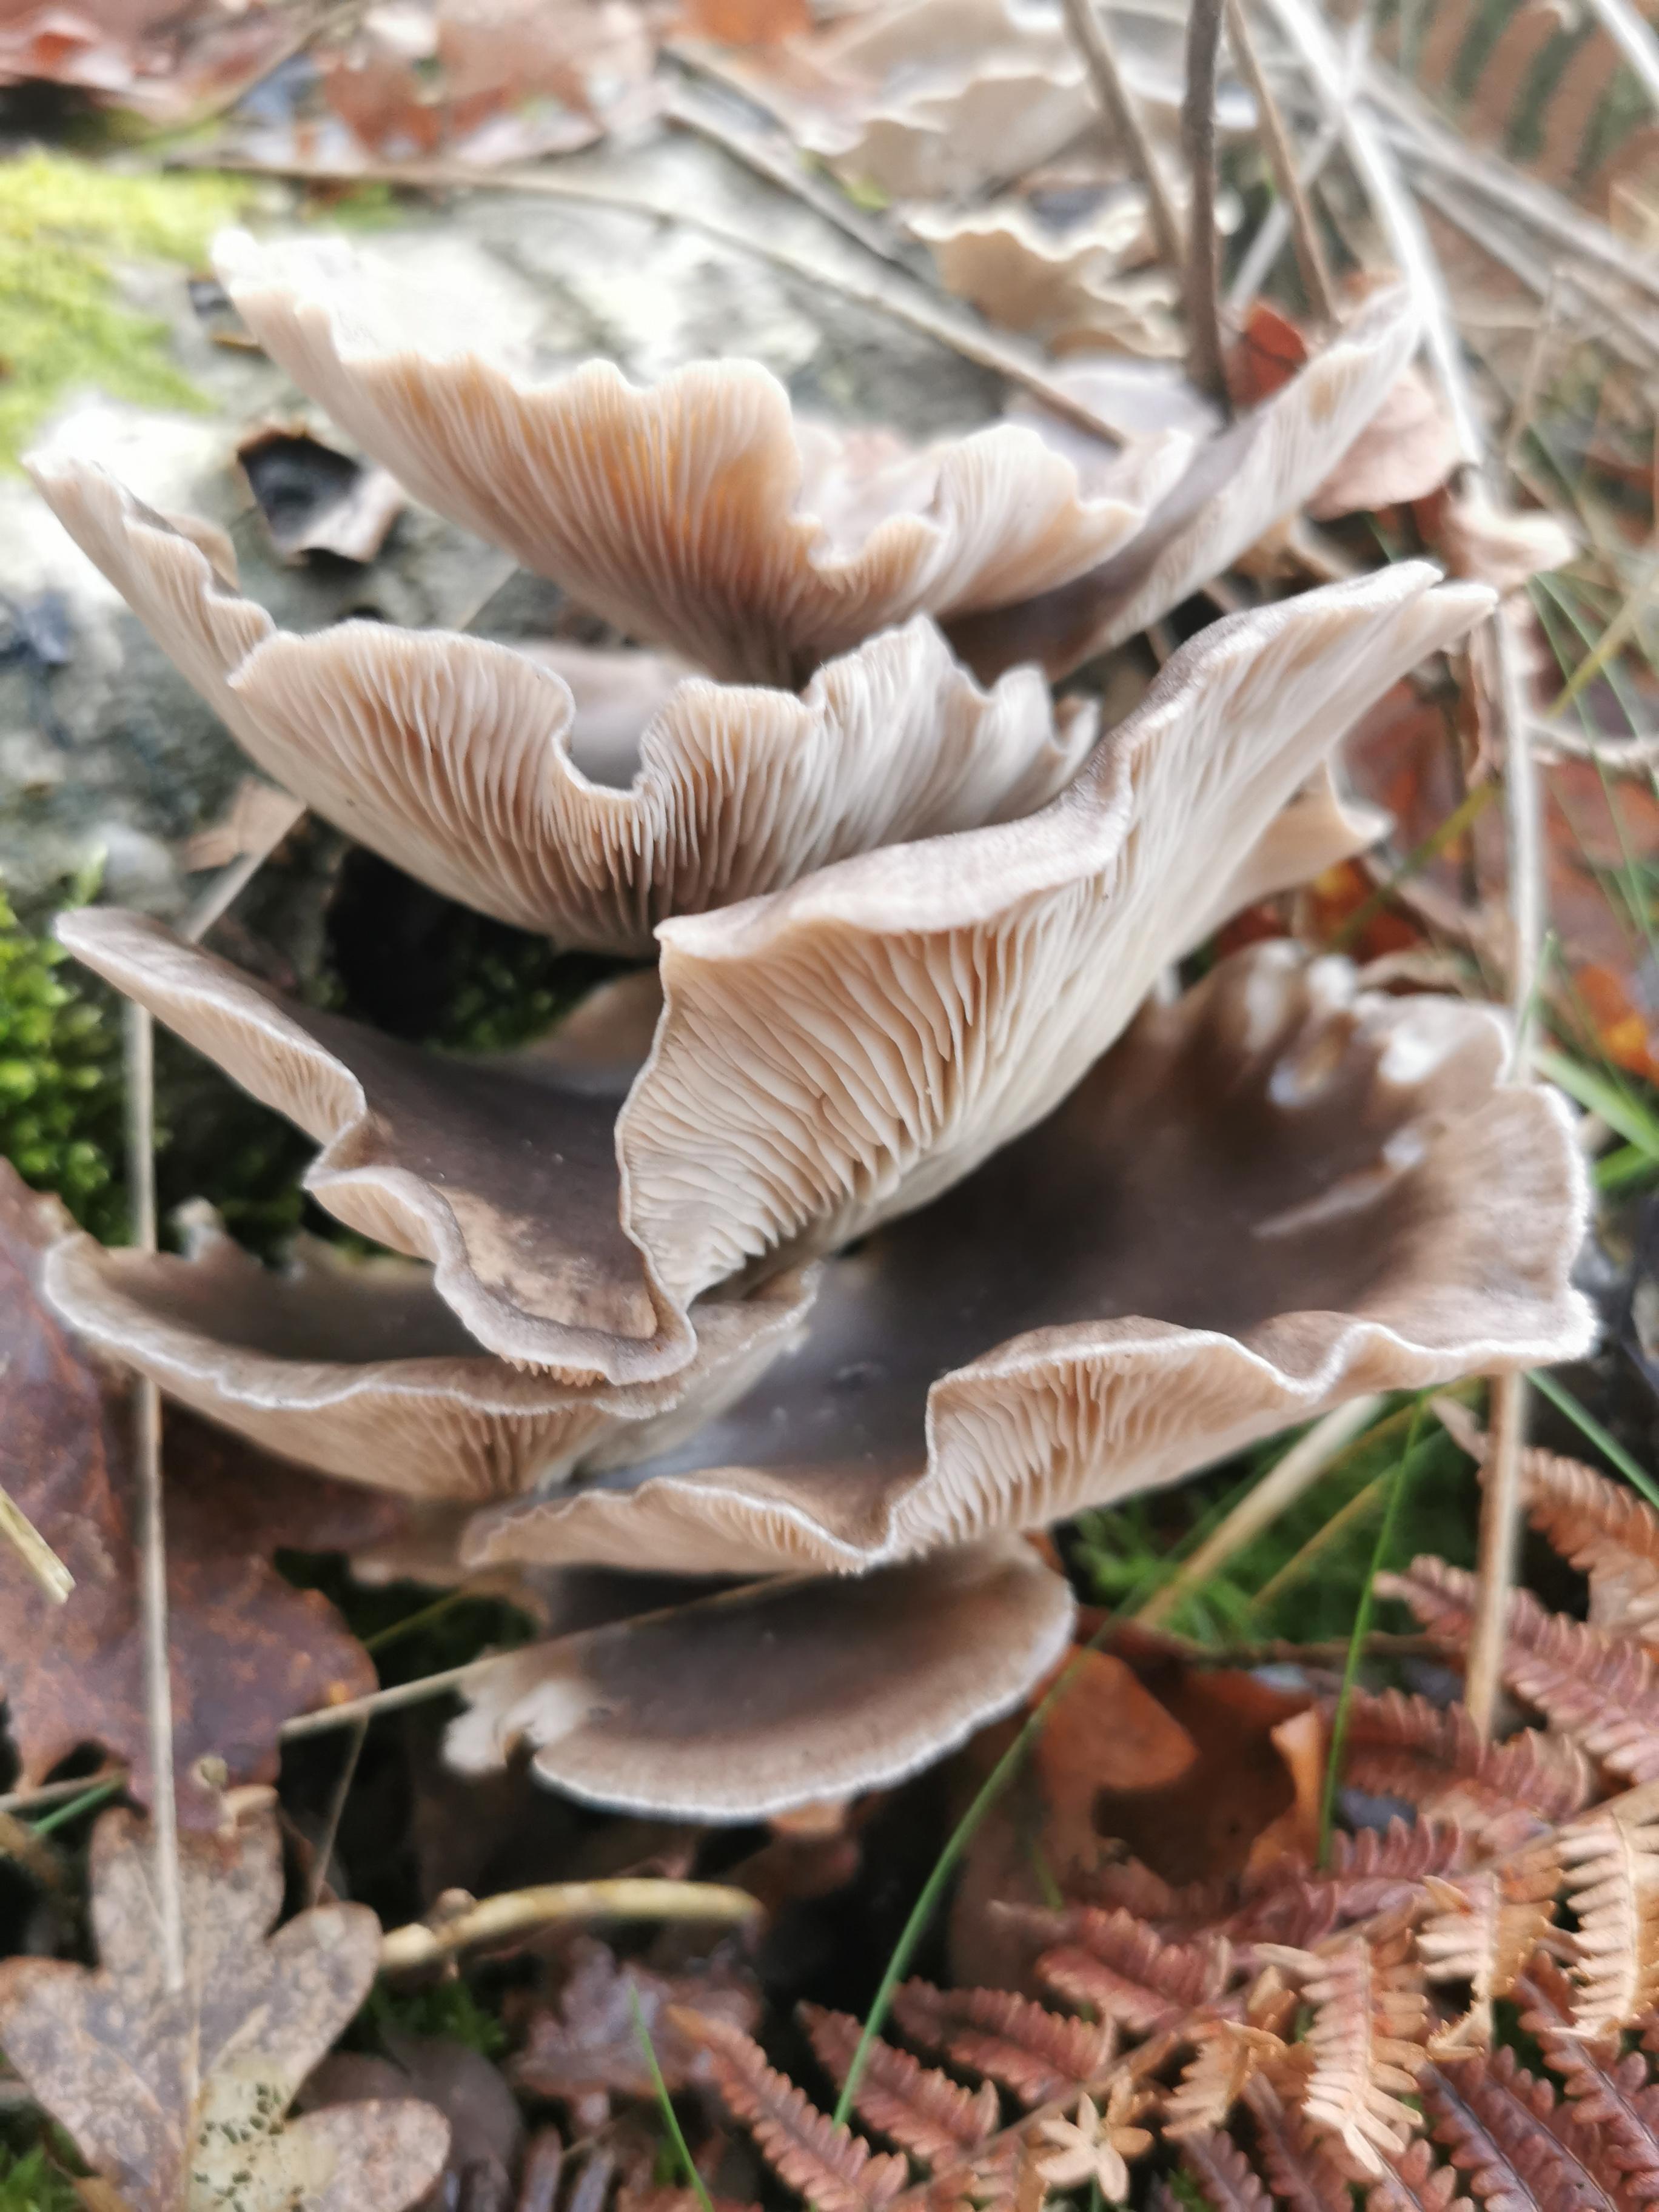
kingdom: Fungi
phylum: Basidiomycota
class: Agaricomycetes
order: Agaricales
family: Pleurotaceae
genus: Pleurotus
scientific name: Pleurotus ostreatus
